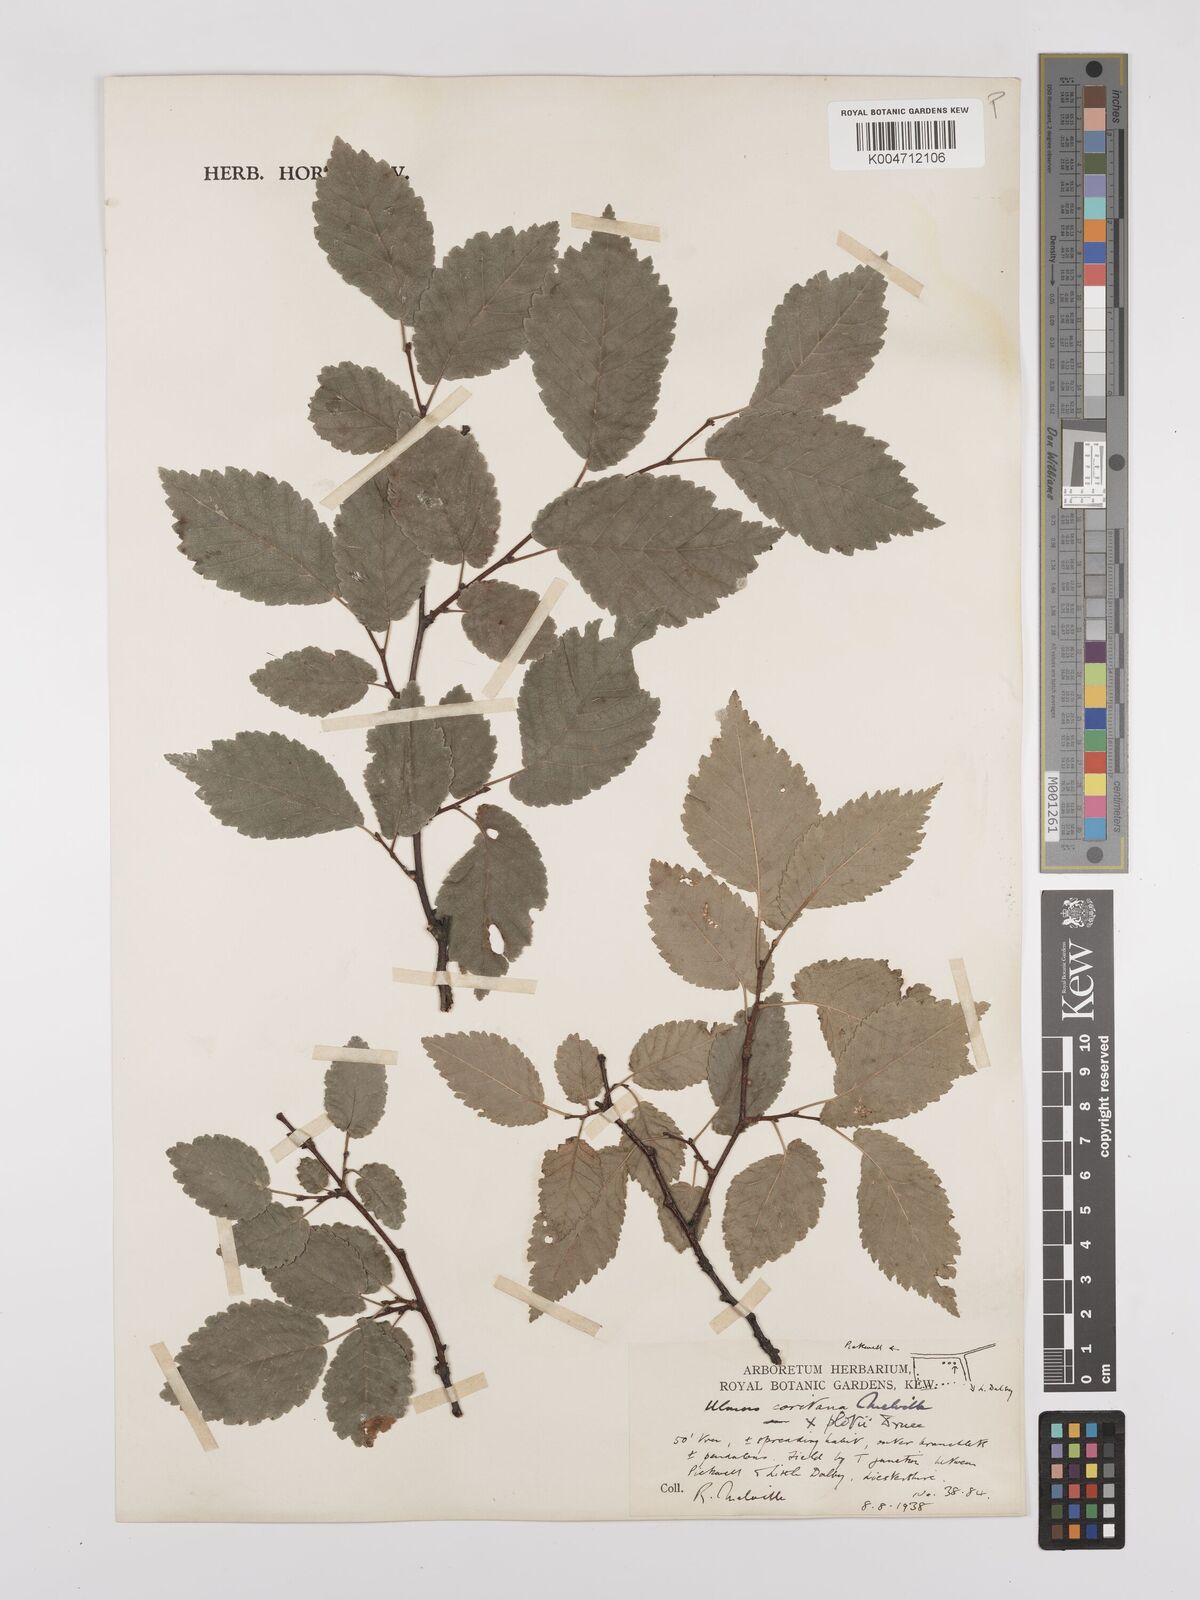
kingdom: Plantae
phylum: Tracheophyta
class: Magnoliopsida
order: Rosales
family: Ulmaceae
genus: Ulmus
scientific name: Ulmus minor
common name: Small-leaved elm
